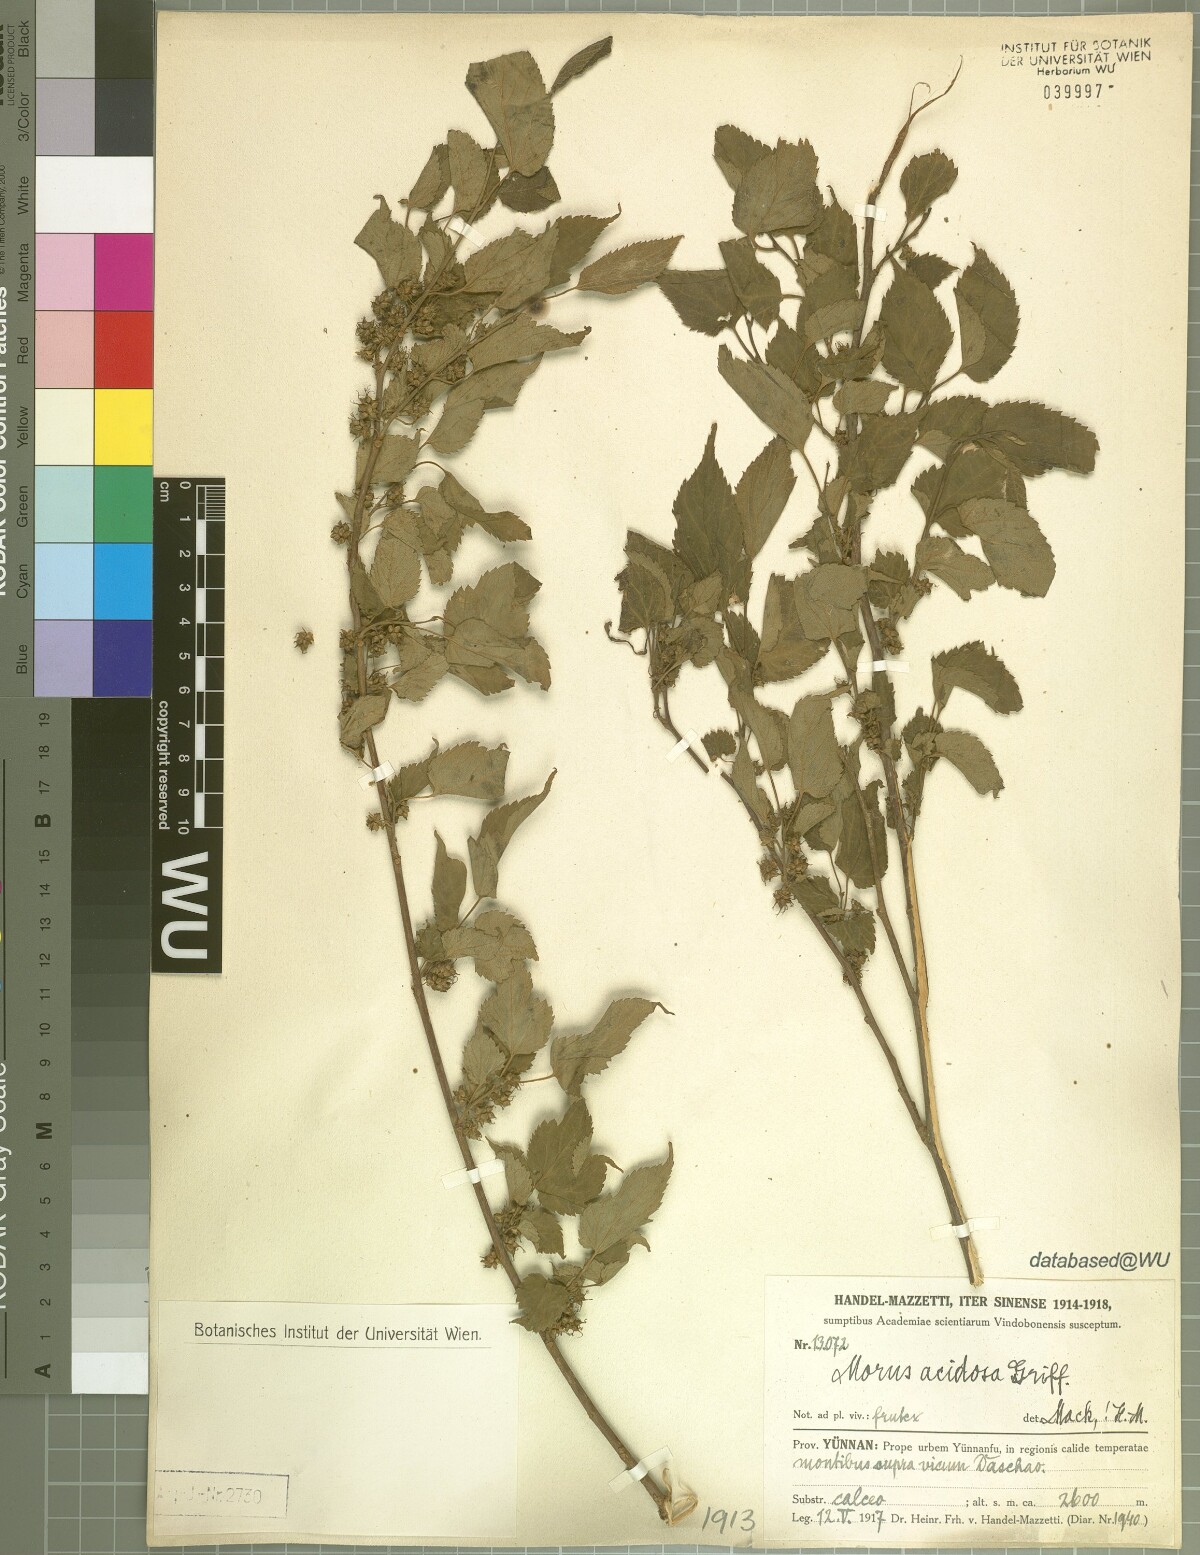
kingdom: Plantae
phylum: Tracheophyta
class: Magnoliopsida
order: Rosales
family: Moraceae
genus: Broussonetia
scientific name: Broussonetia papyrifera
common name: Paper mulberry
